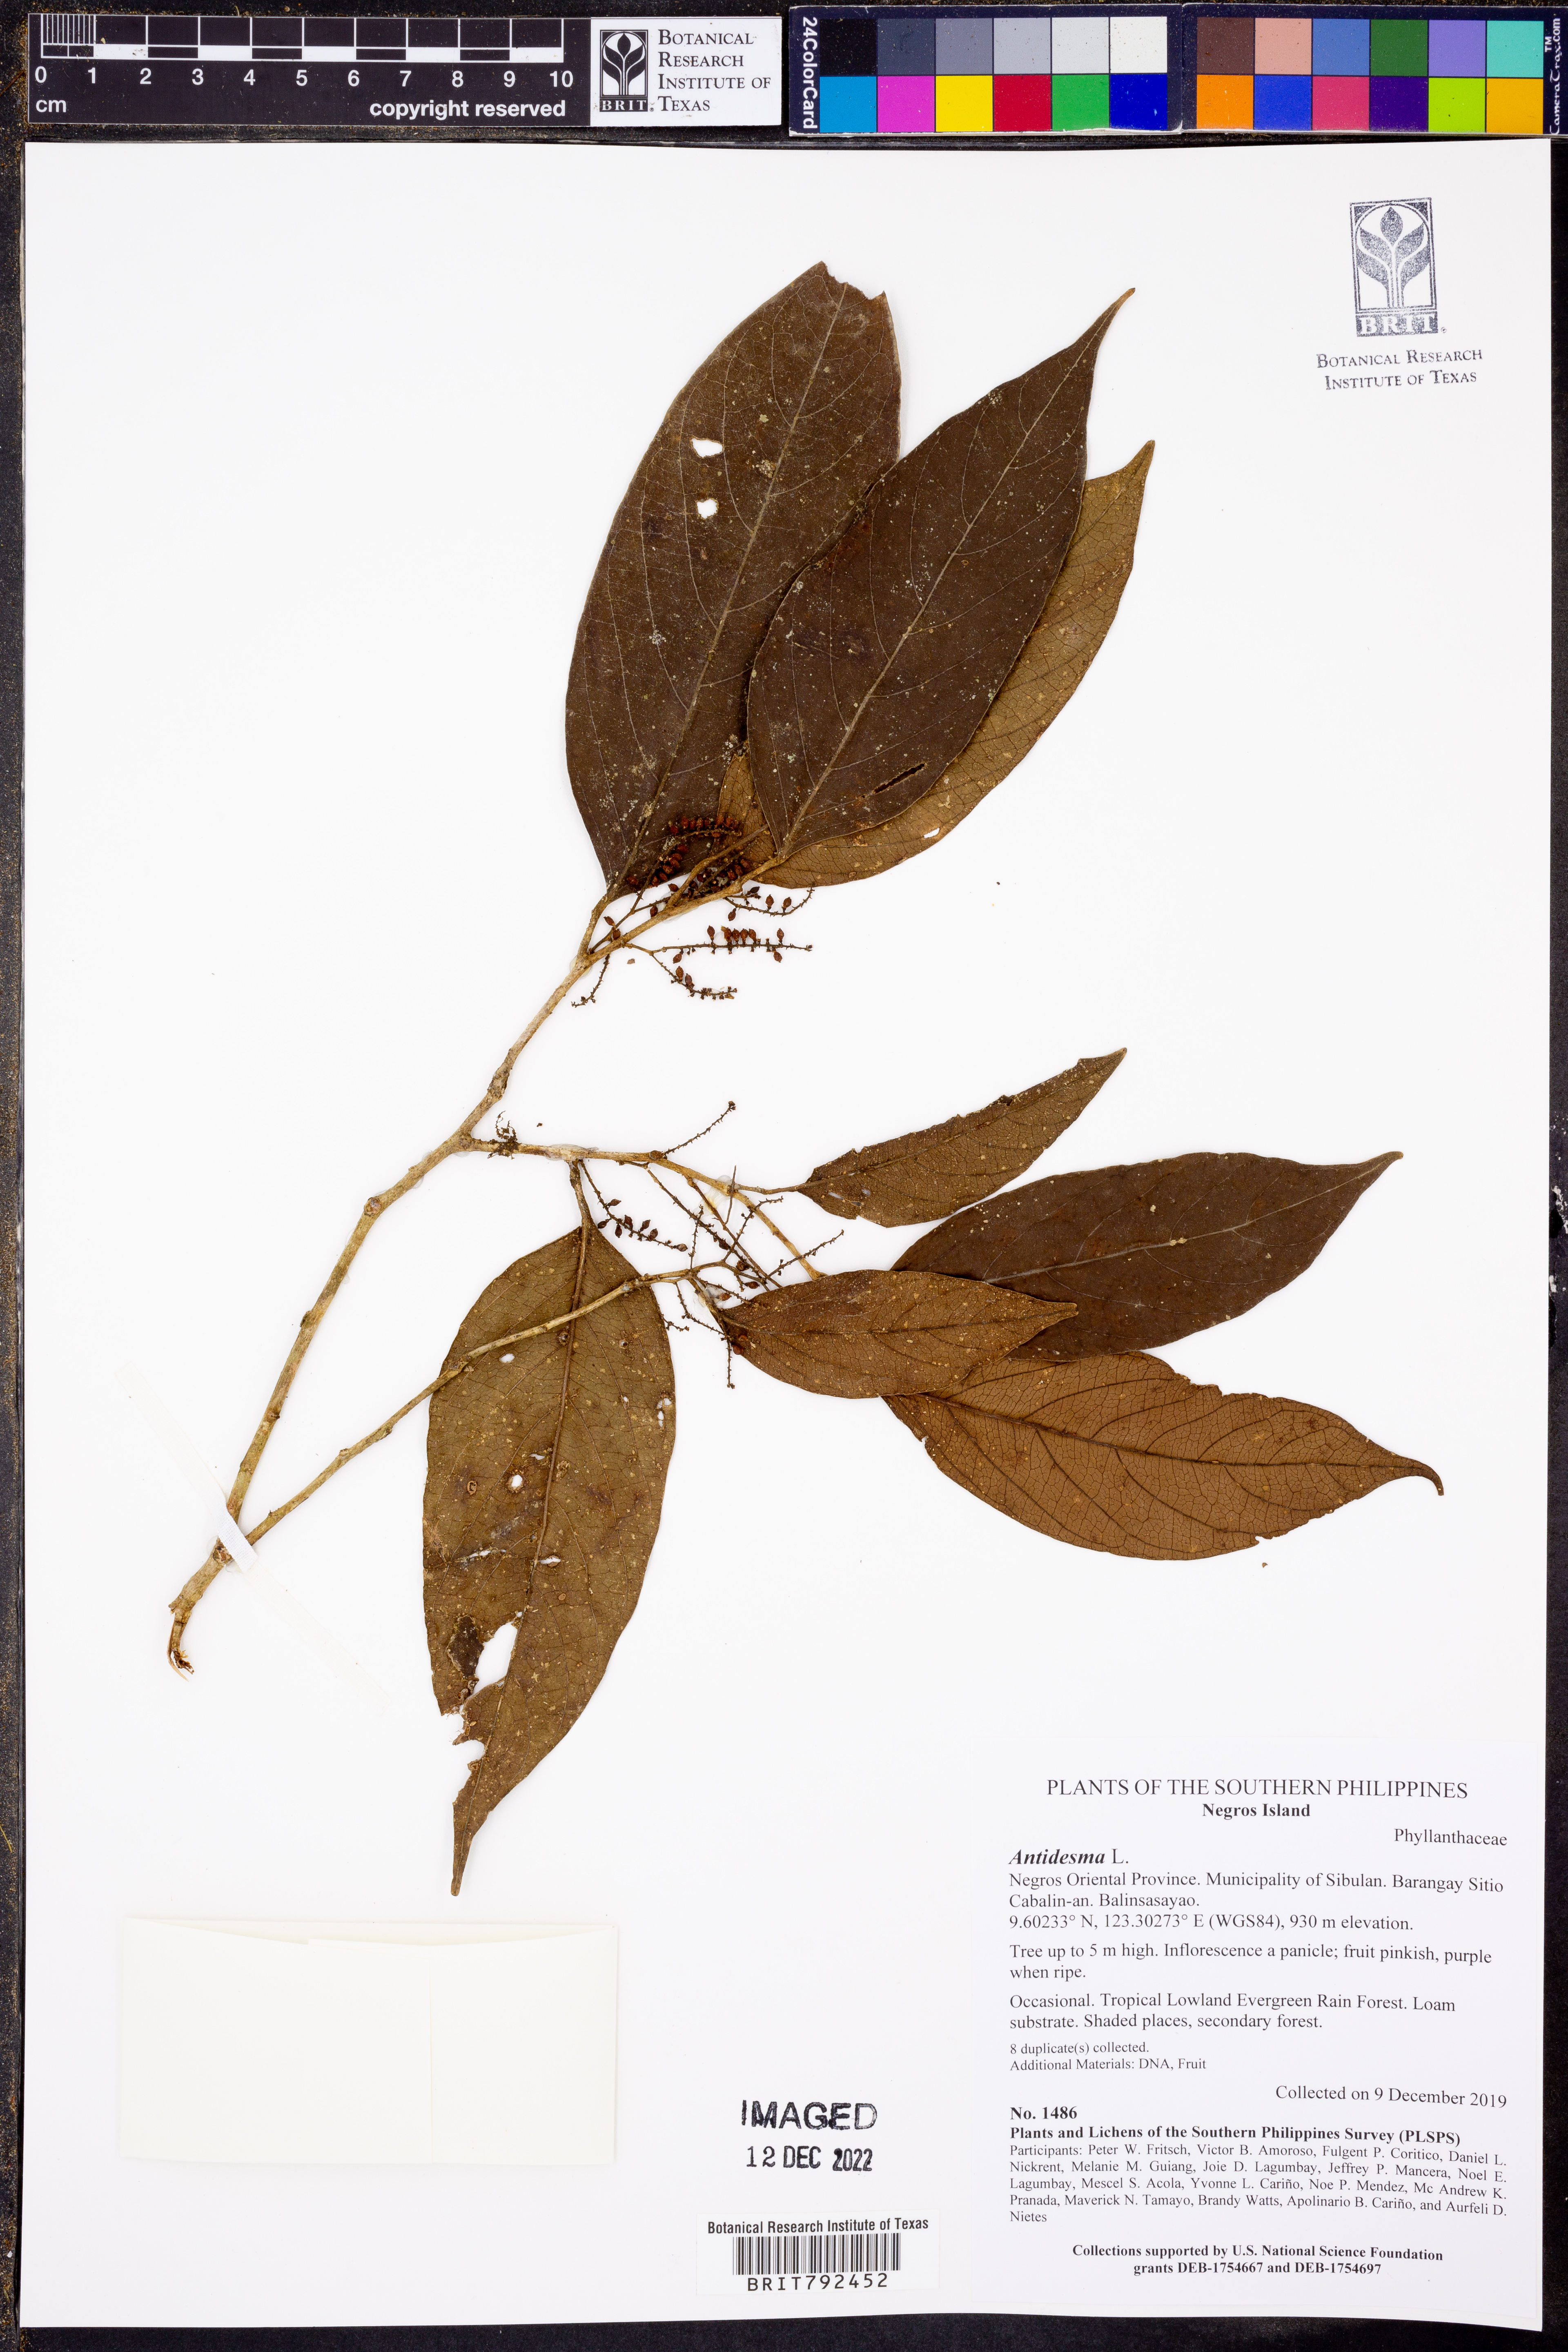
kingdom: Plantae
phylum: Tracheophyta
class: Magnoliopsida
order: Malpighiales
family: Phyllanthaceae
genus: Antidesma
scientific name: Antidesma
